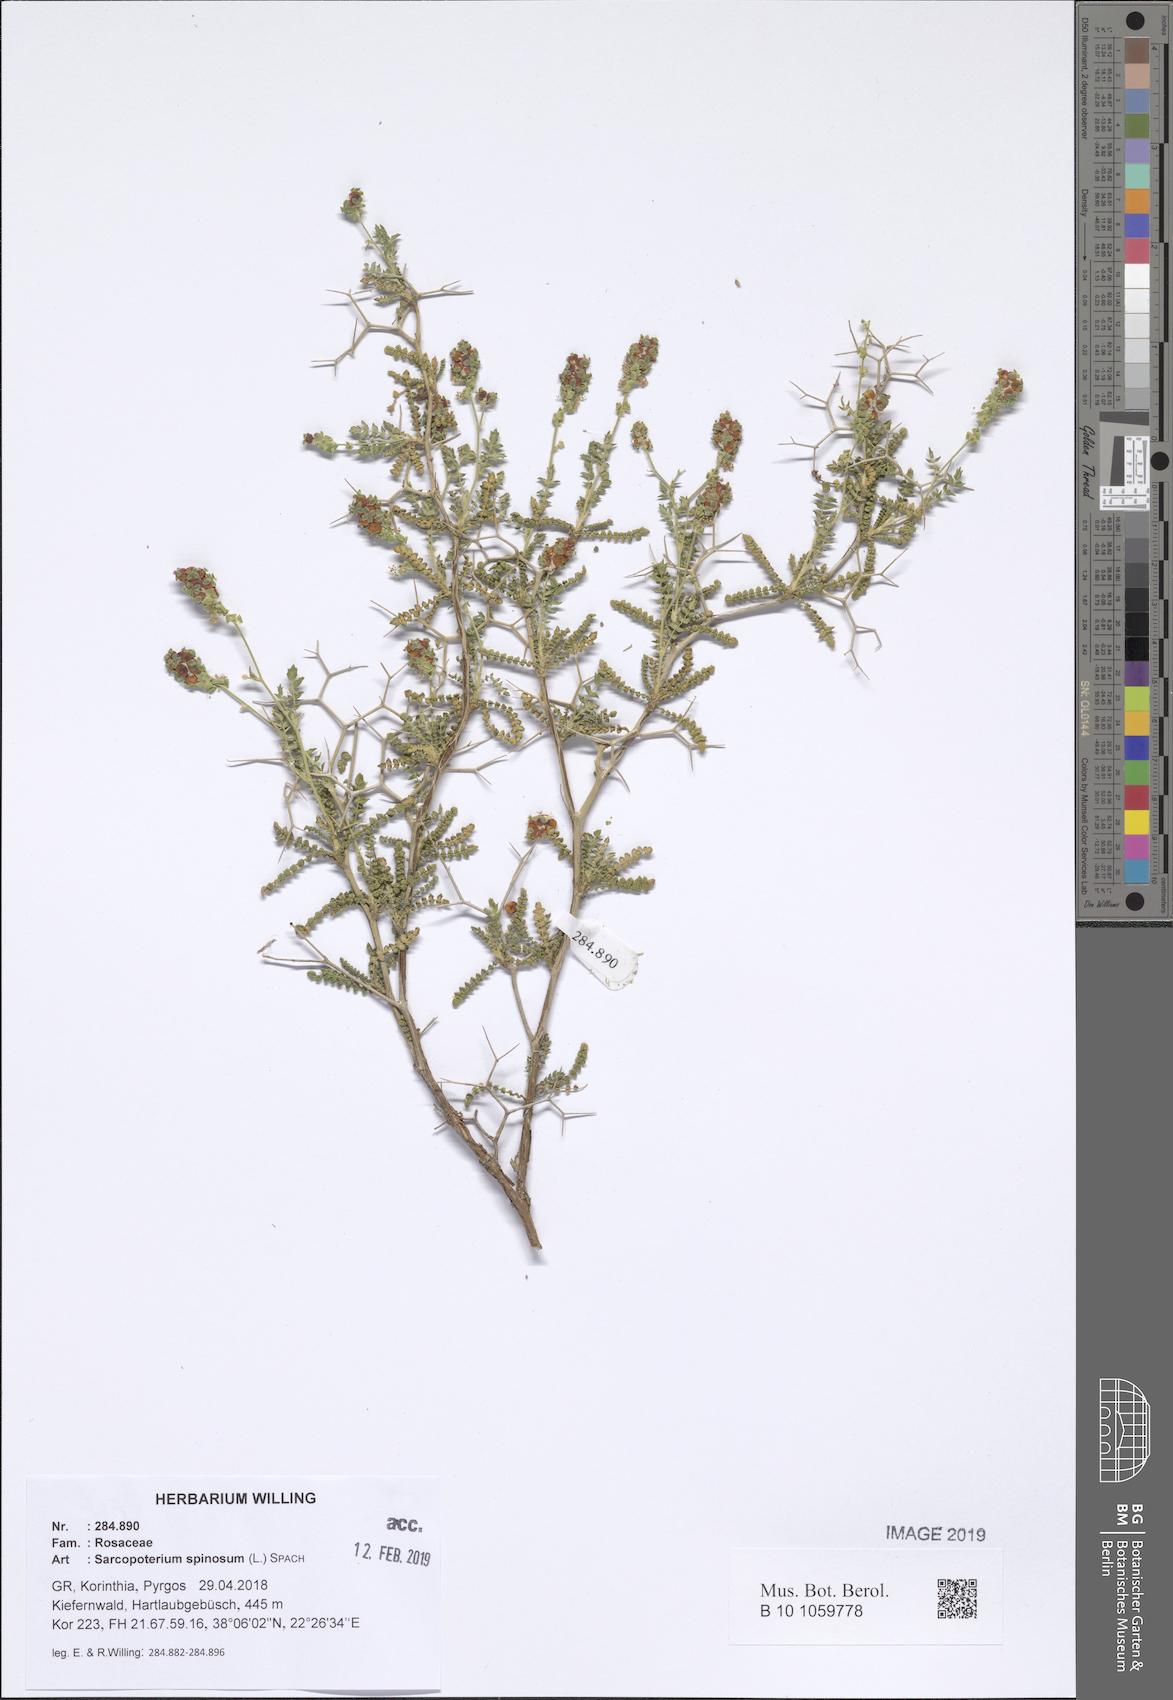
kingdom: Plantae
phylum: Tracheophyta
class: Magnoliopsida
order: Rosales
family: Rosaceae
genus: Sarcopoterium
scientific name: Sarcopoterium spinosum
